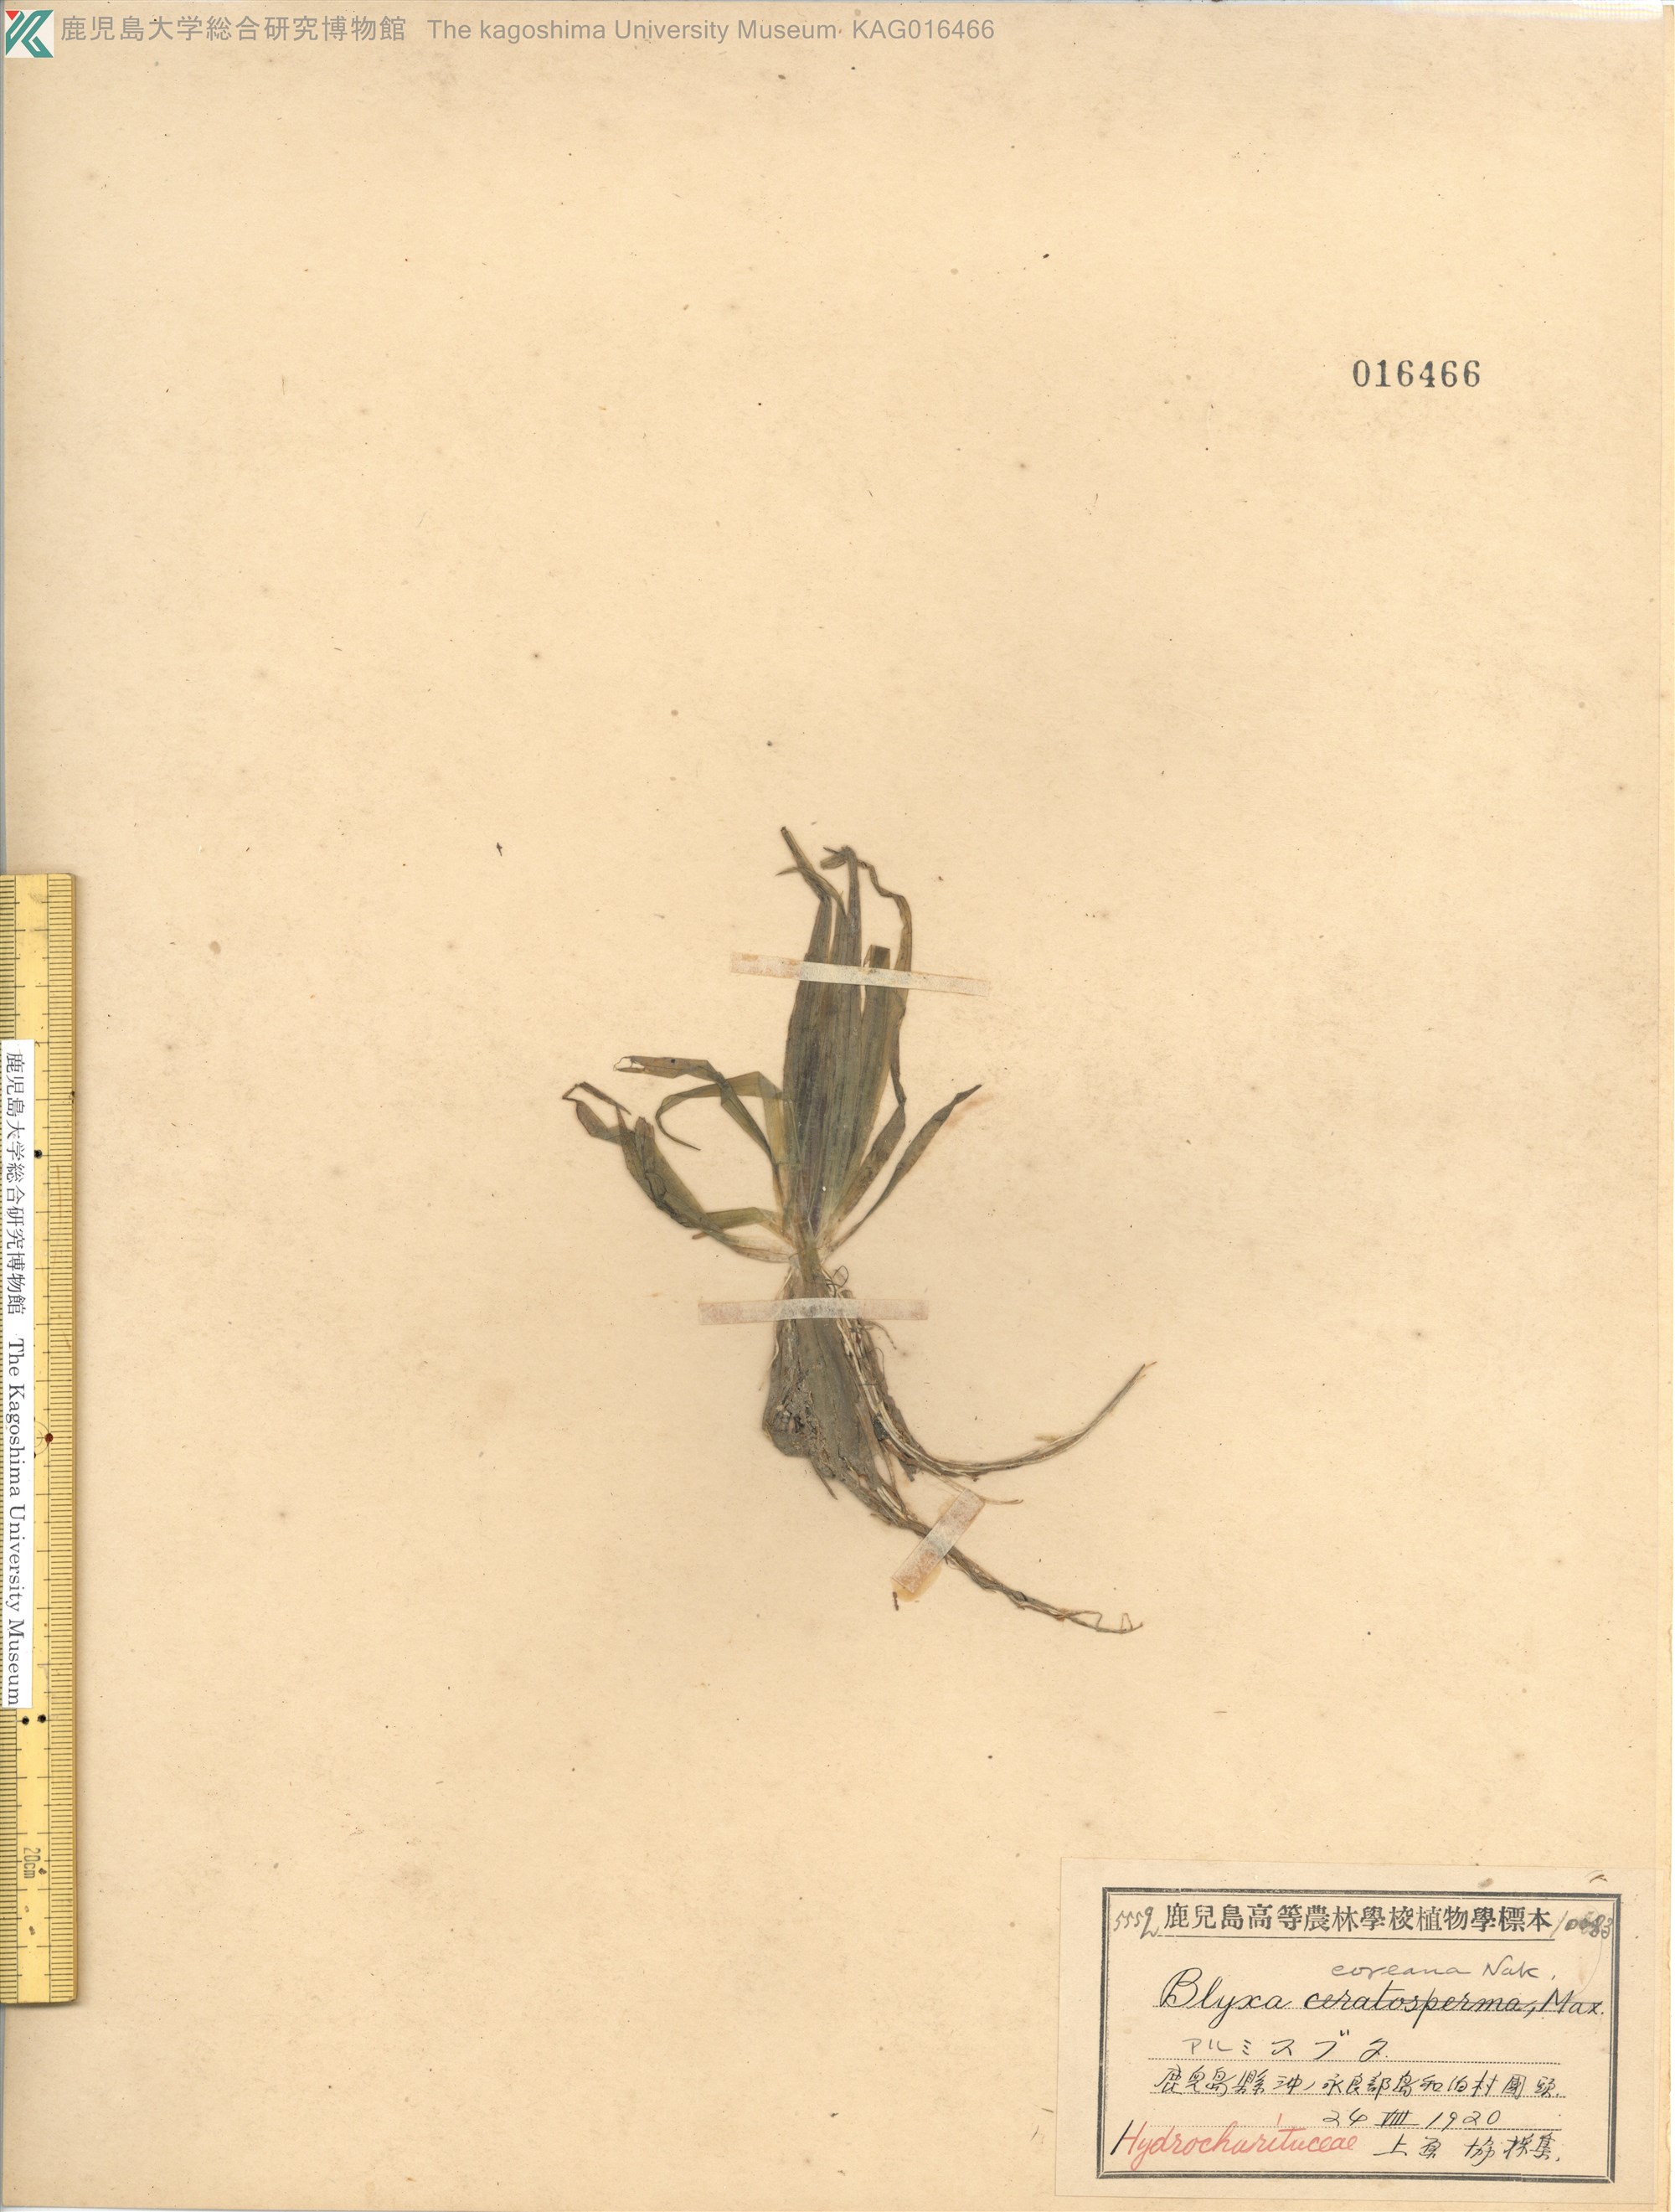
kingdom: Plantae
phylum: Tracheophyta
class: Liliopsida
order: Alismatales
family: Hydrocharitaceae
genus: Blyxa
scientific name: Blyxa aubertii
